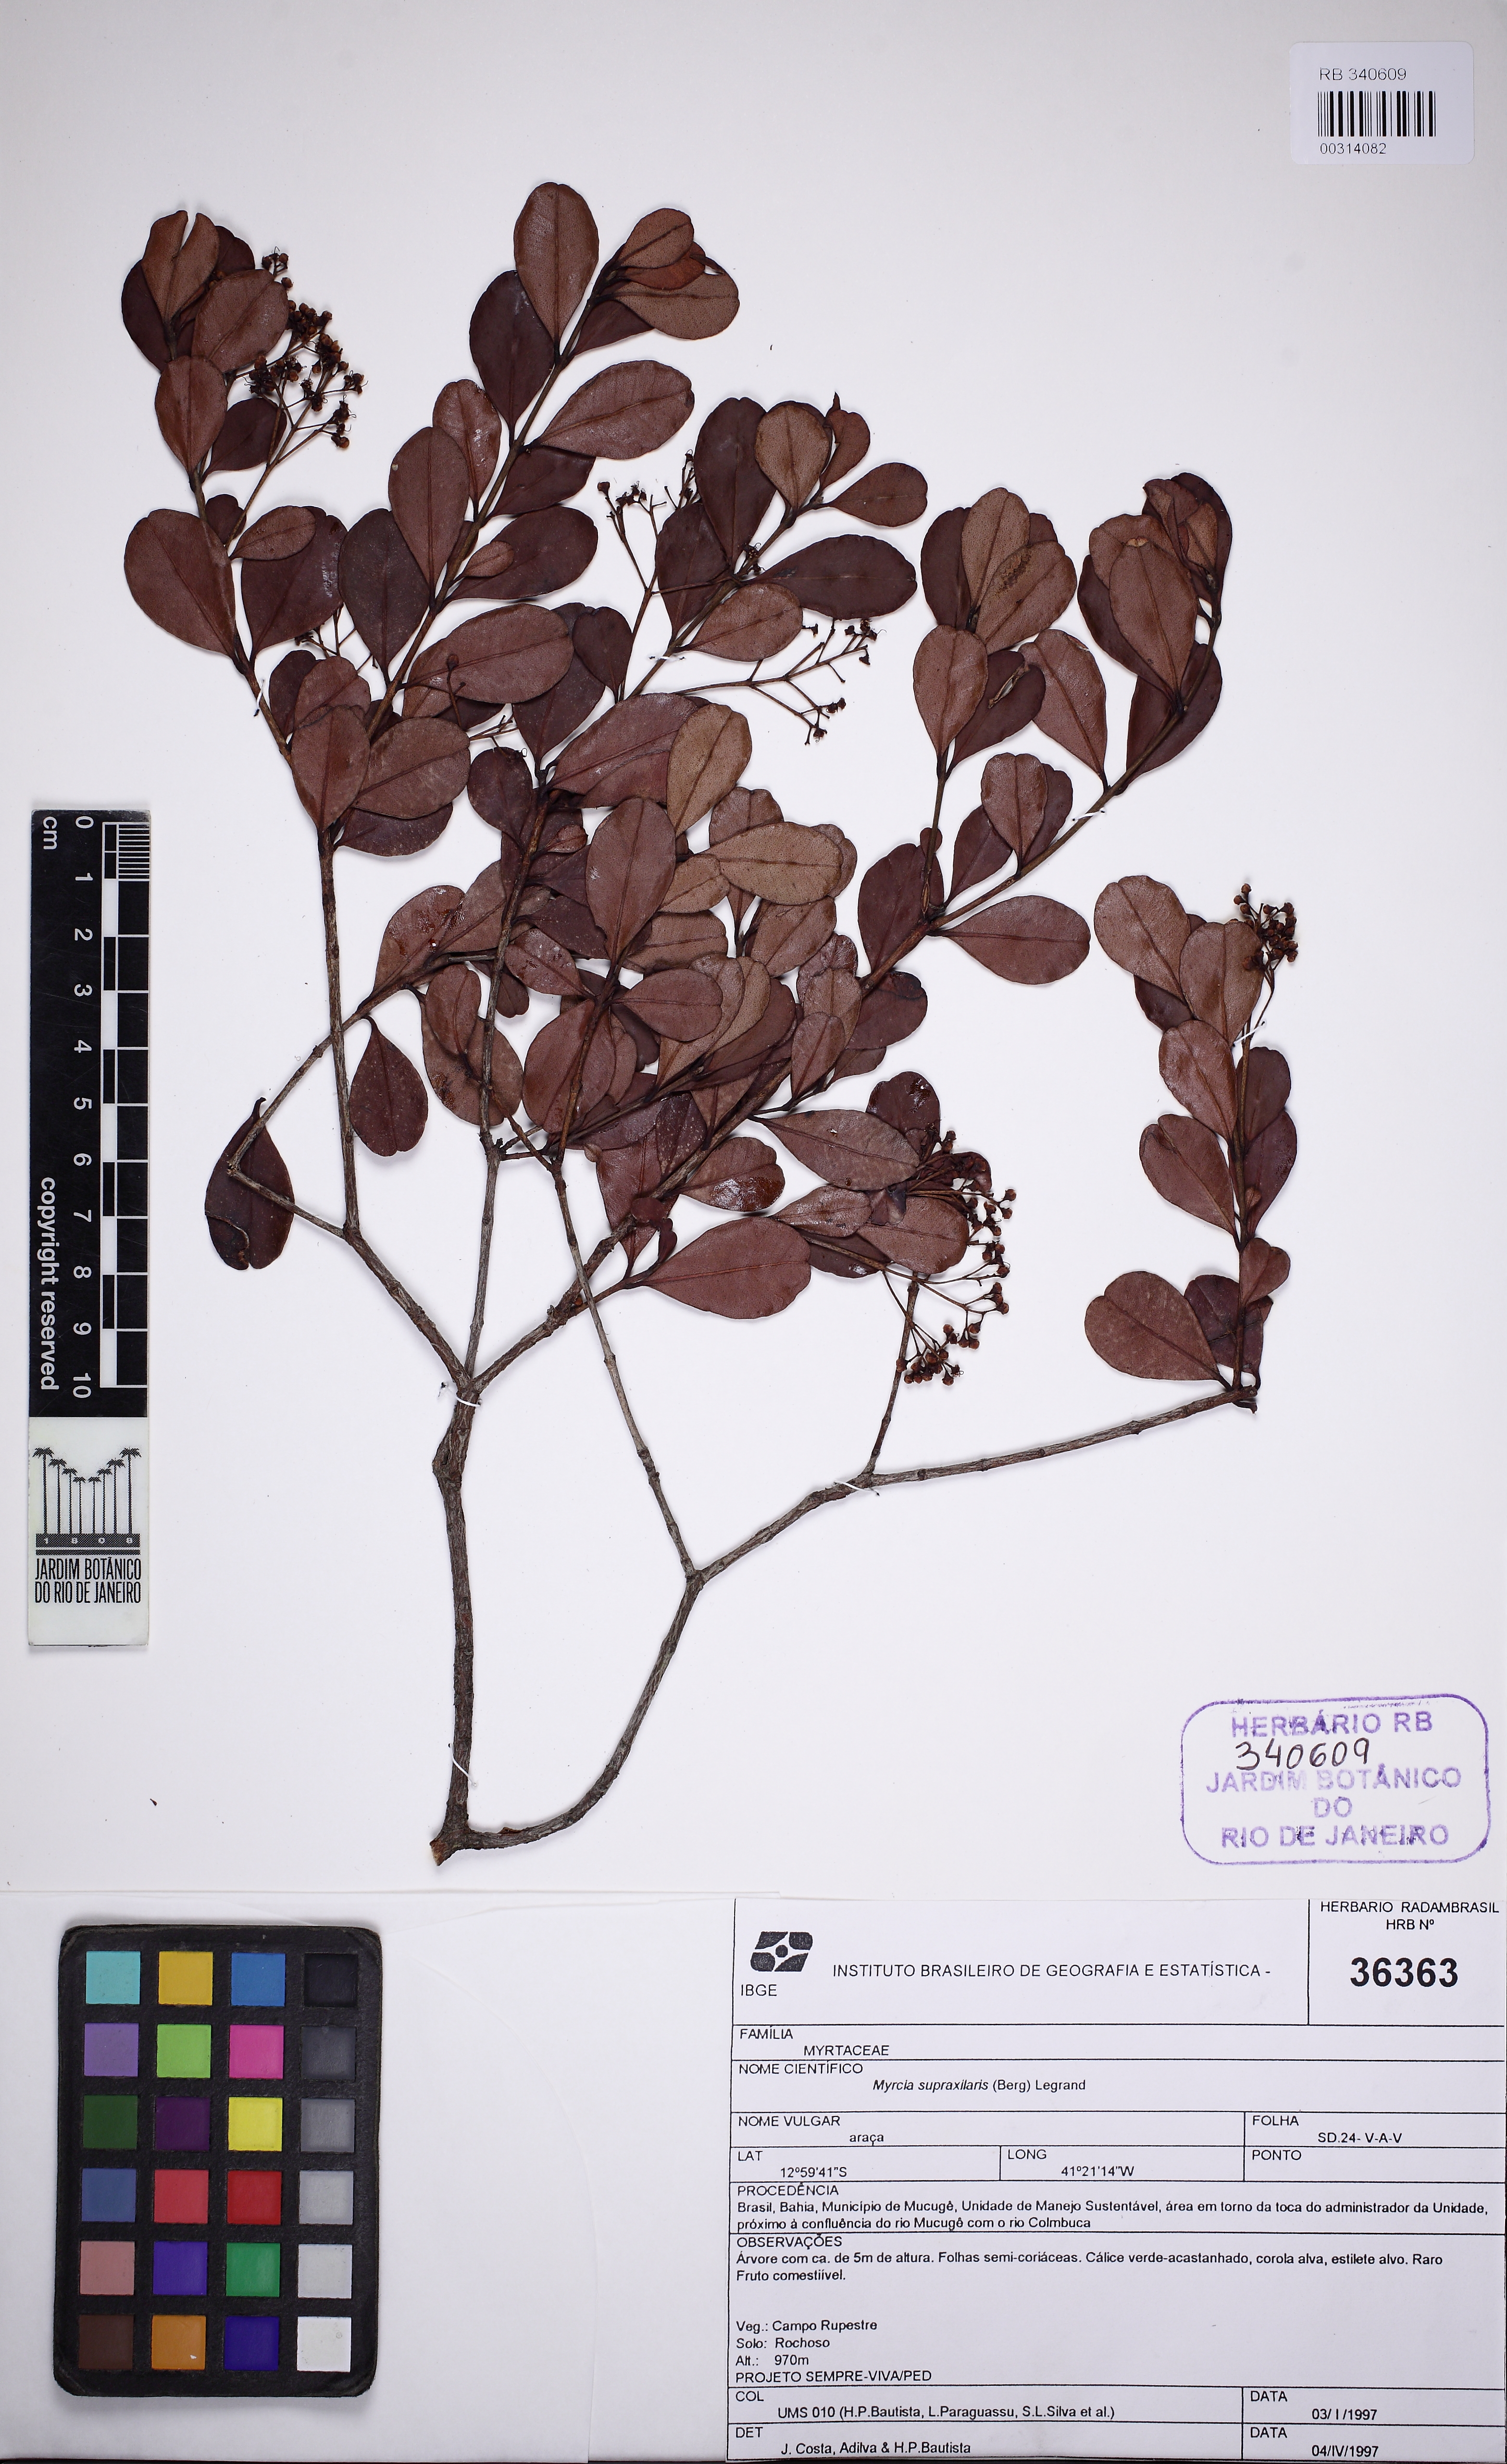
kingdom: Plantae
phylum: Tracheophyta
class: Magnoliopsida
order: Myrtales
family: Myrtaceae
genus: Myrcia
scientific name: Myrcia guianensis
